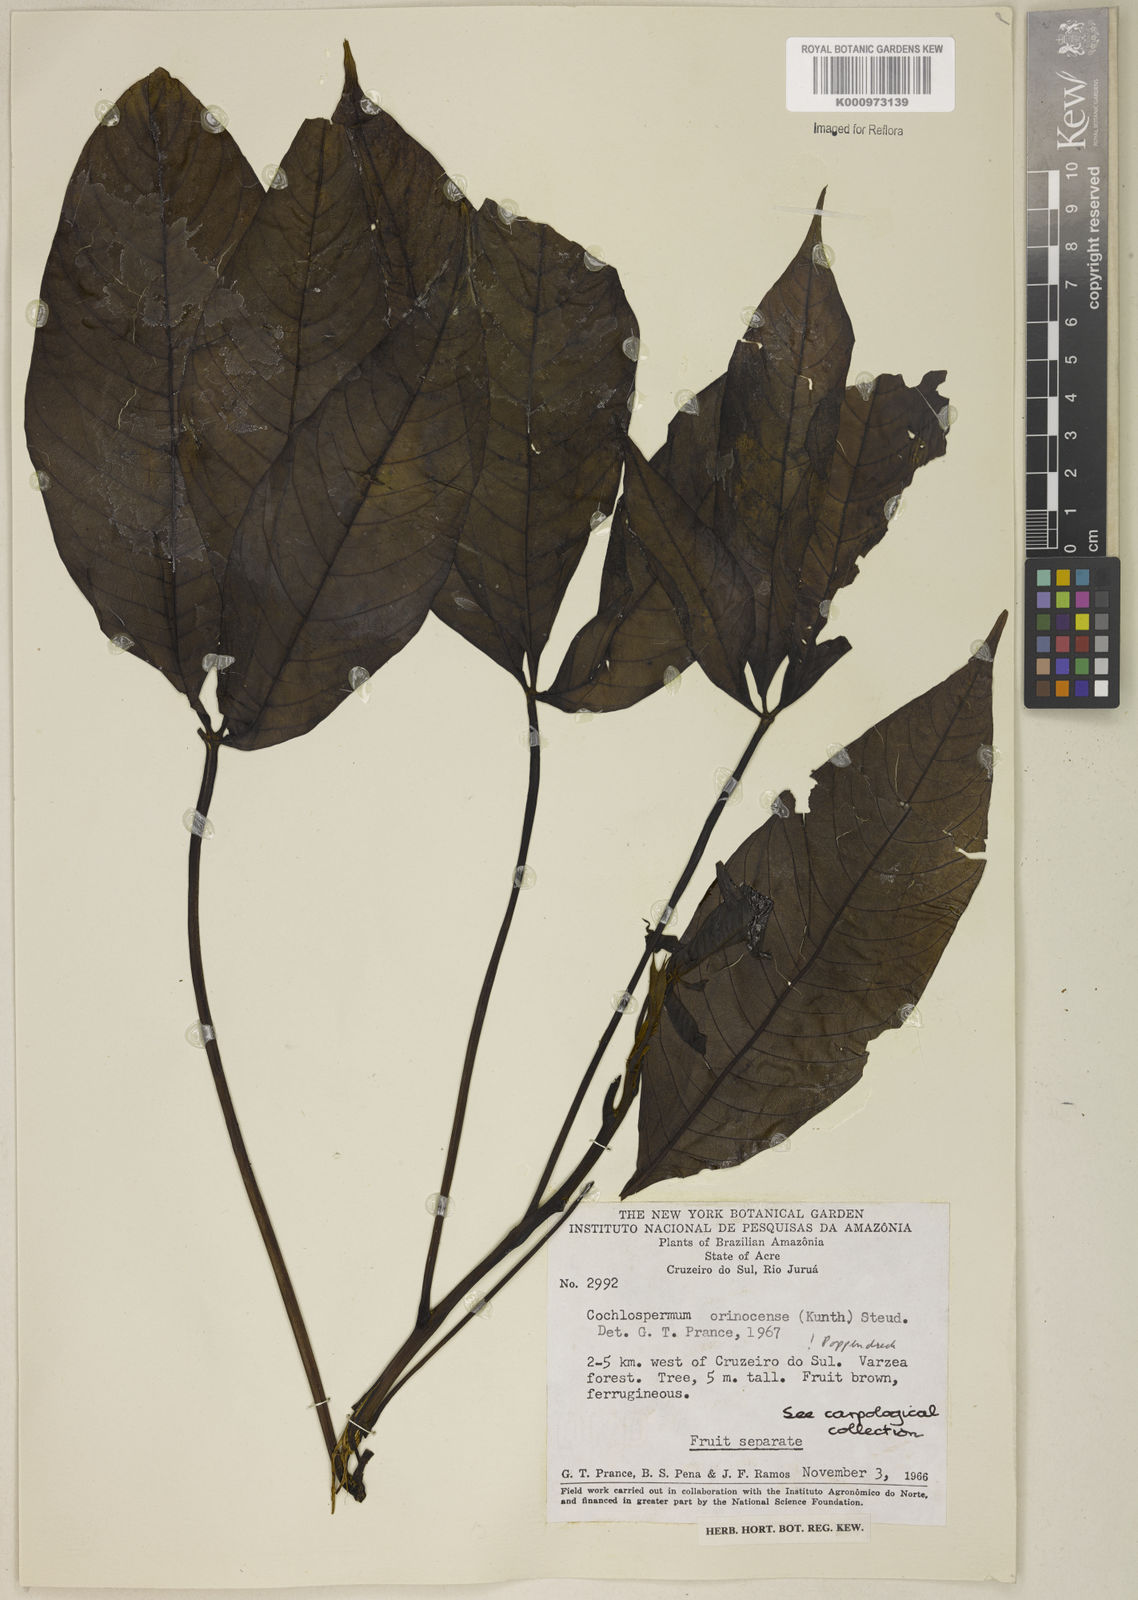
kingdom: Plantae
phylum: Tracheophyta
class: Magnoliopsida
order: Malvales
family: Cochlospermaceae
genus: Cochlospermum
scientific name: Cochlospermum orinocense
